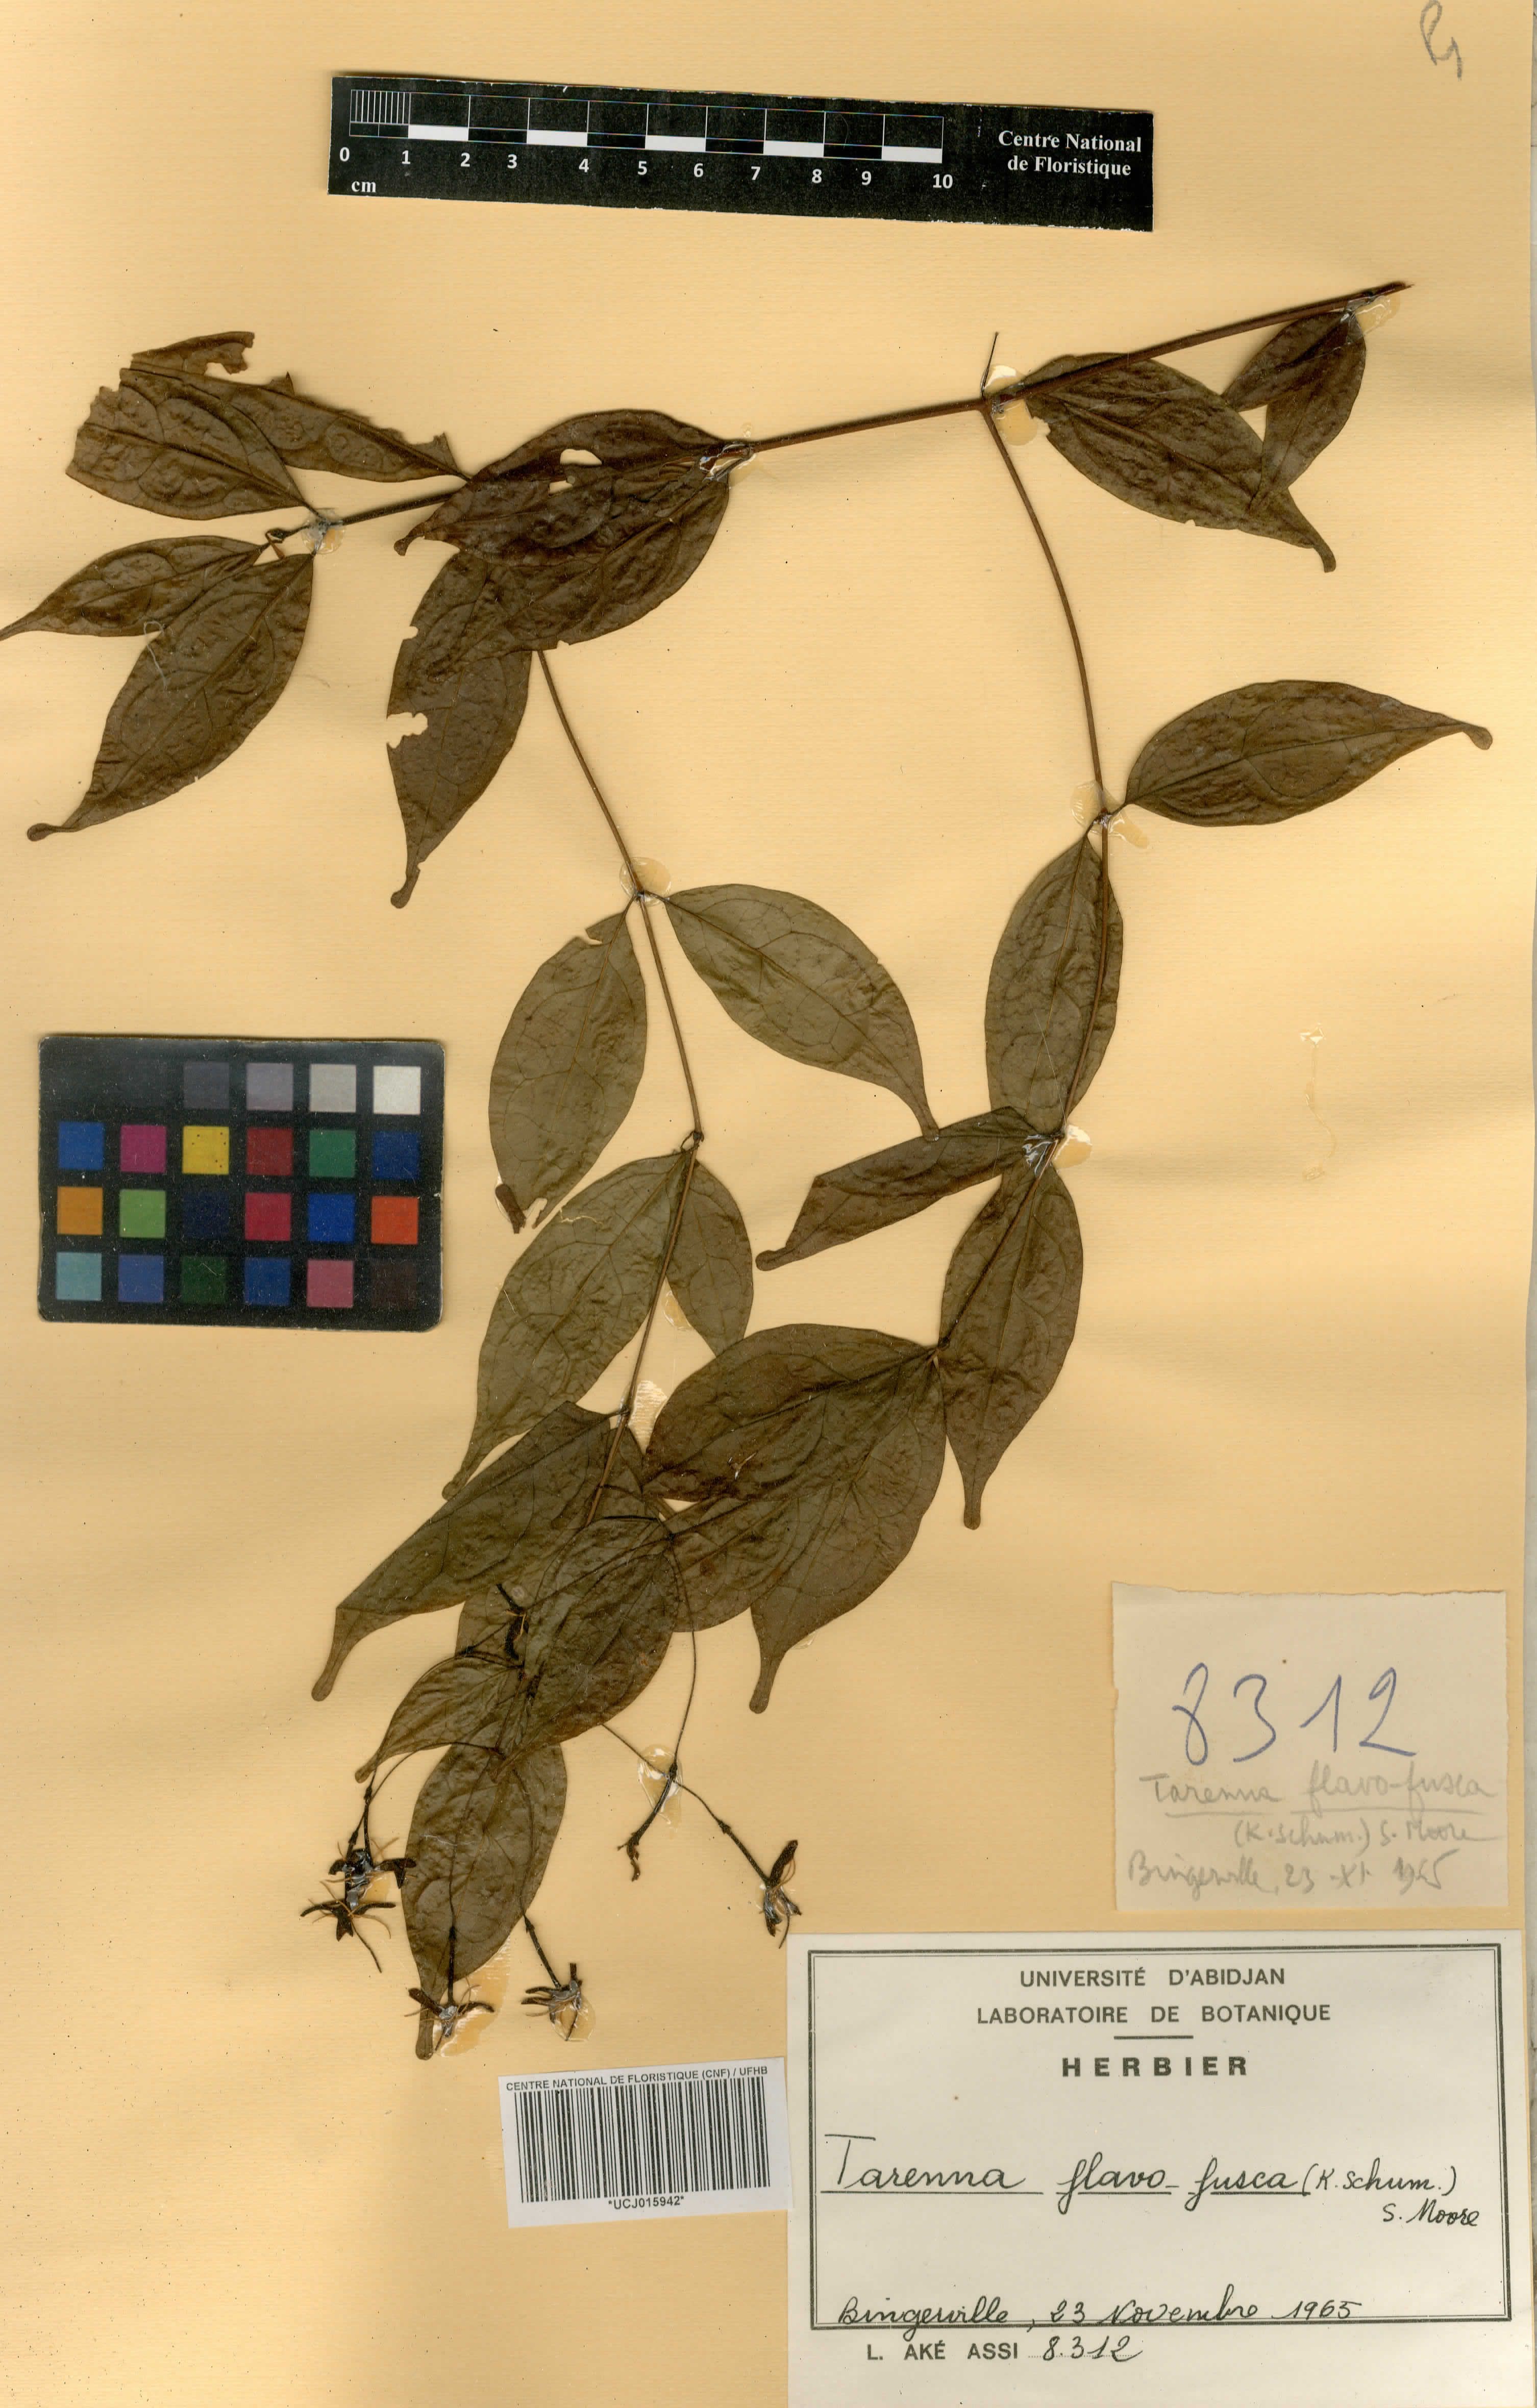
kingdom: Plantae
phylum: Tracheophyta
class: Magnoliopsida
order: Gentianales
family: Rubiaceae
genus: Tarenna
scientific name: Tarenna fuscoflava
